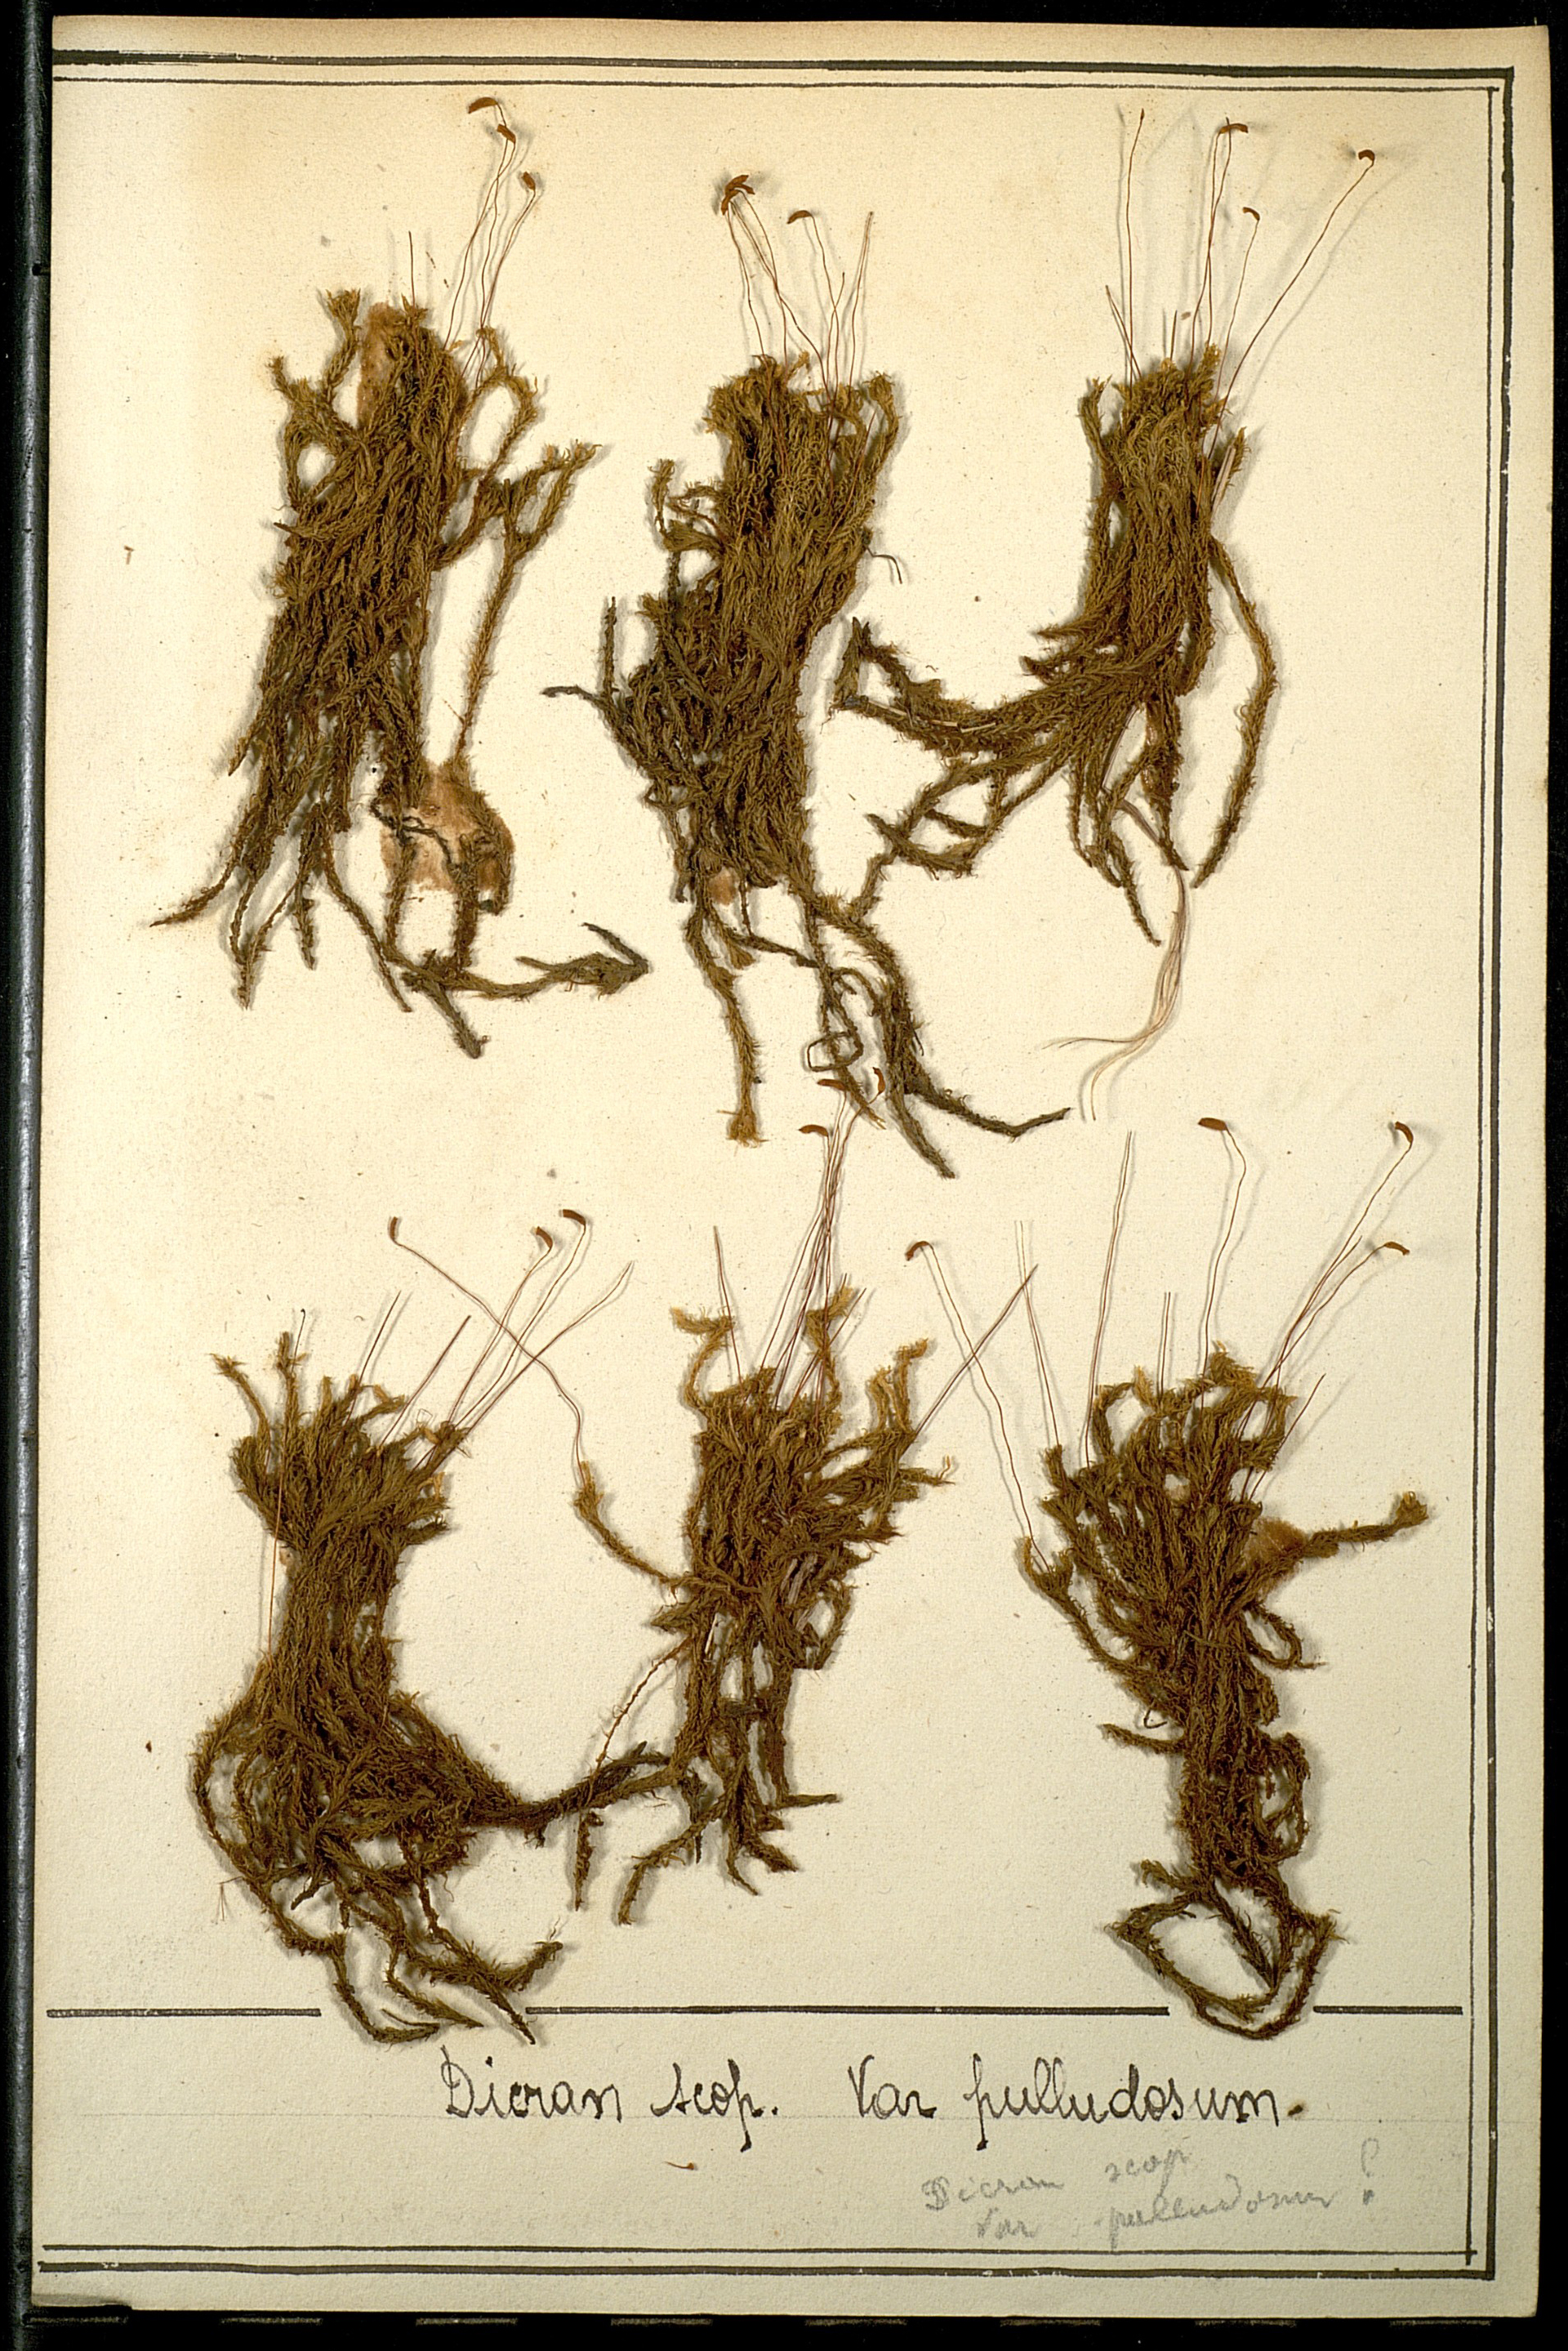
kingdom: Plantae
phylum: Bryophyta
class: Bryopsida
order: Dicranales
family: Dicranaceae
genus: Dicranum
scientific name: Dicranum scoparium
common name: Broom fork-moss
